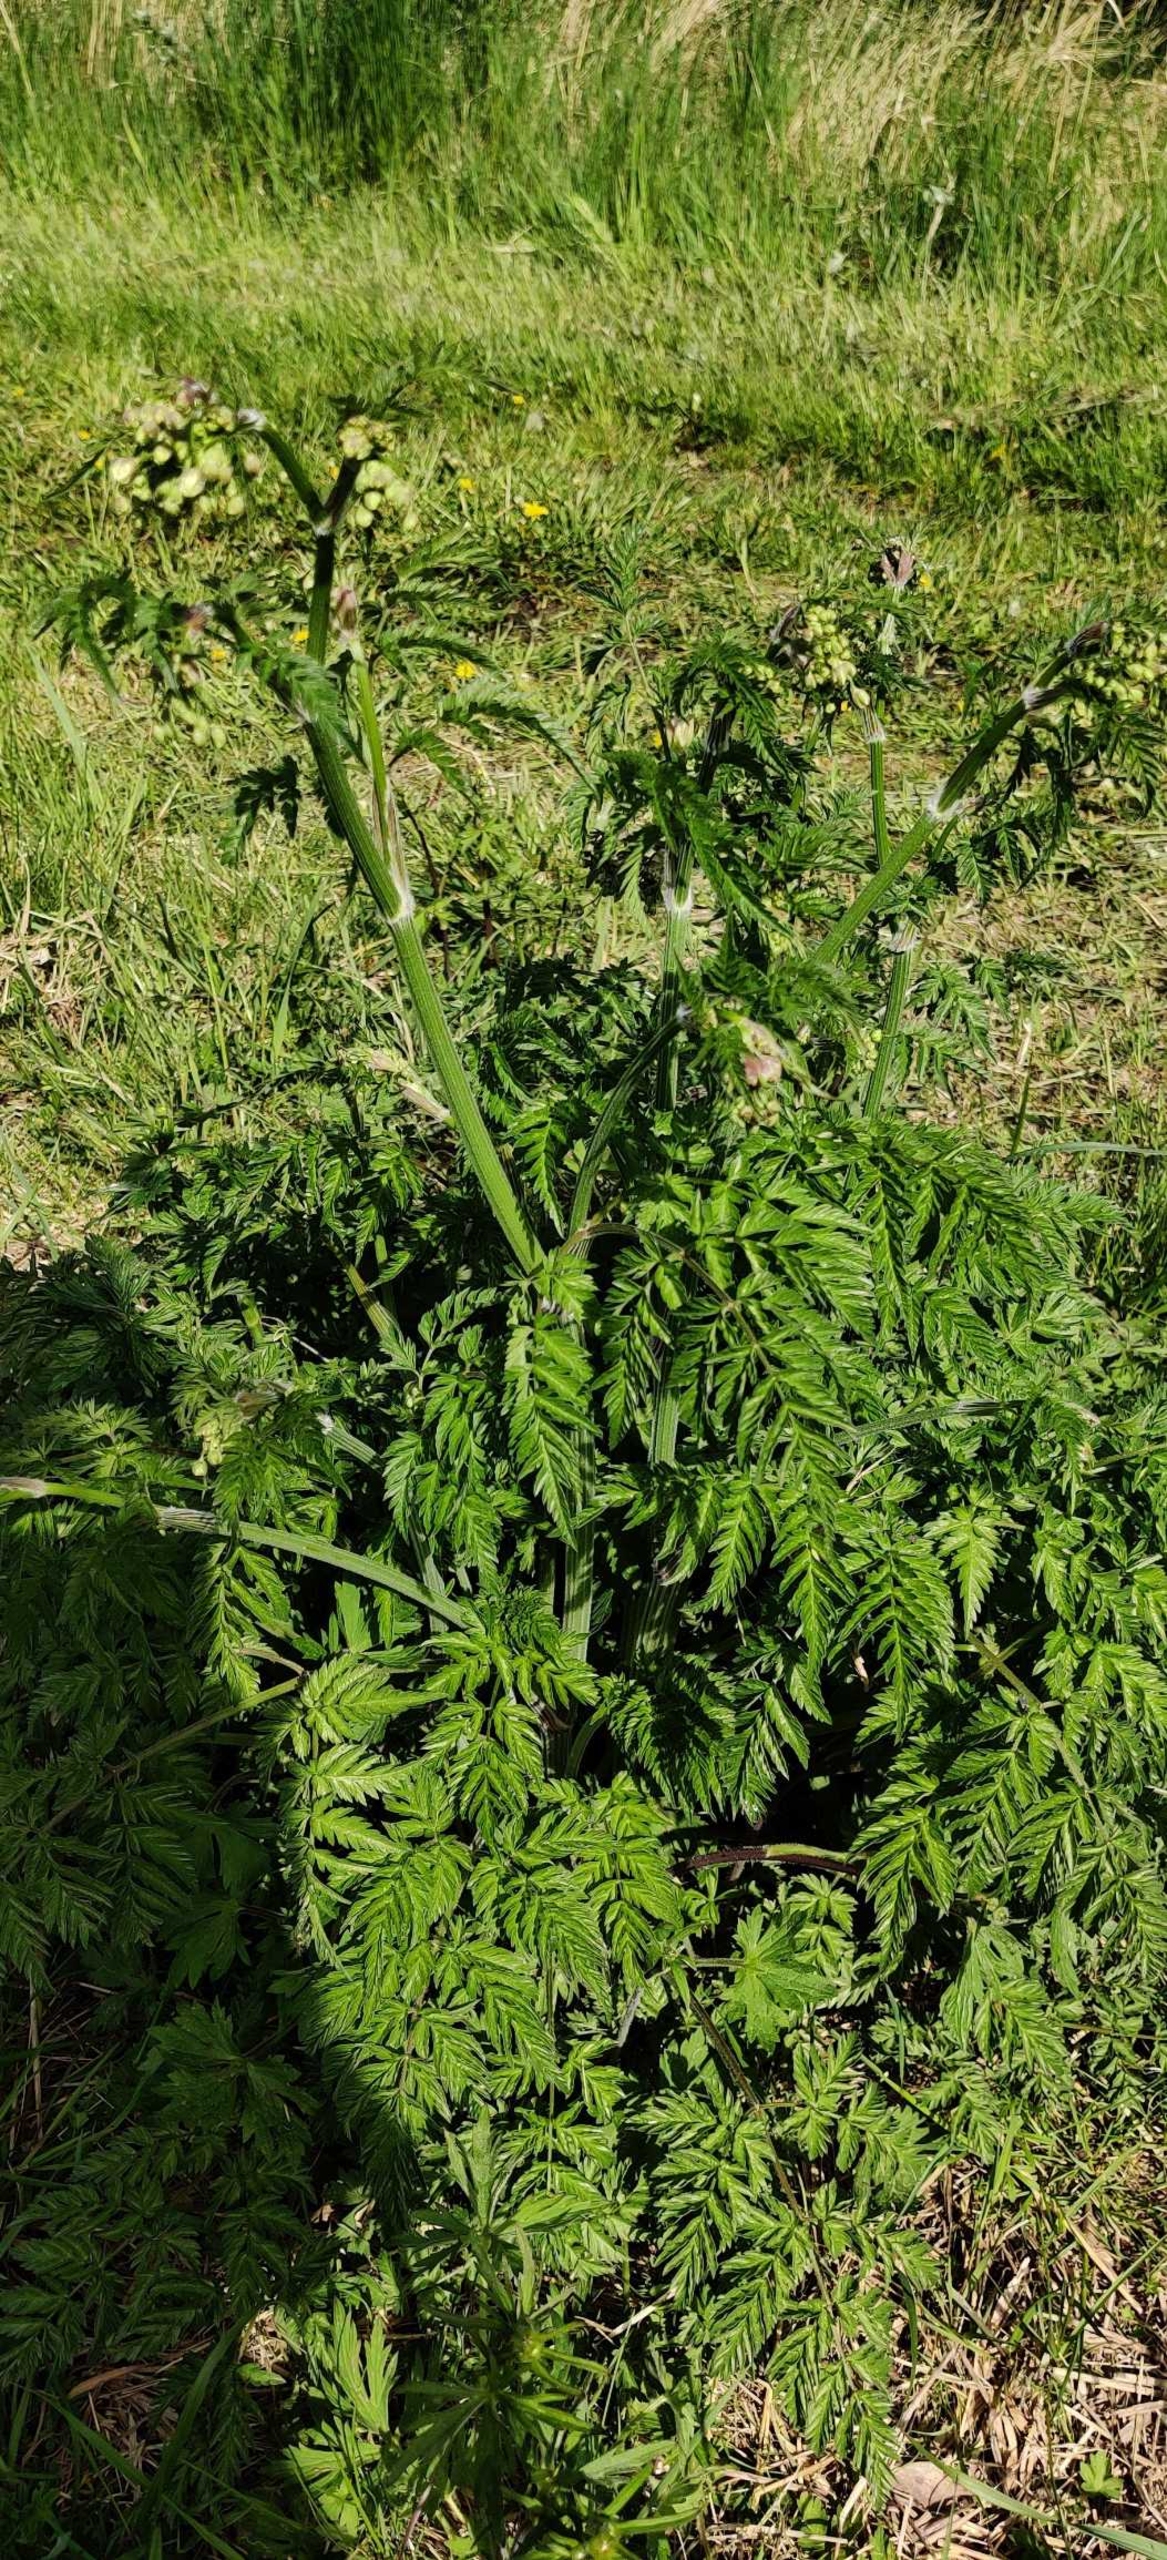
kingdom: Plantae
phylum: Tracheophyta
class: Magnoliopsida
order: Apiales
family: Apiaceae
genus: Anthriscus
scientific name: Anthriscus sylvestris
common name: Vild kørvel
